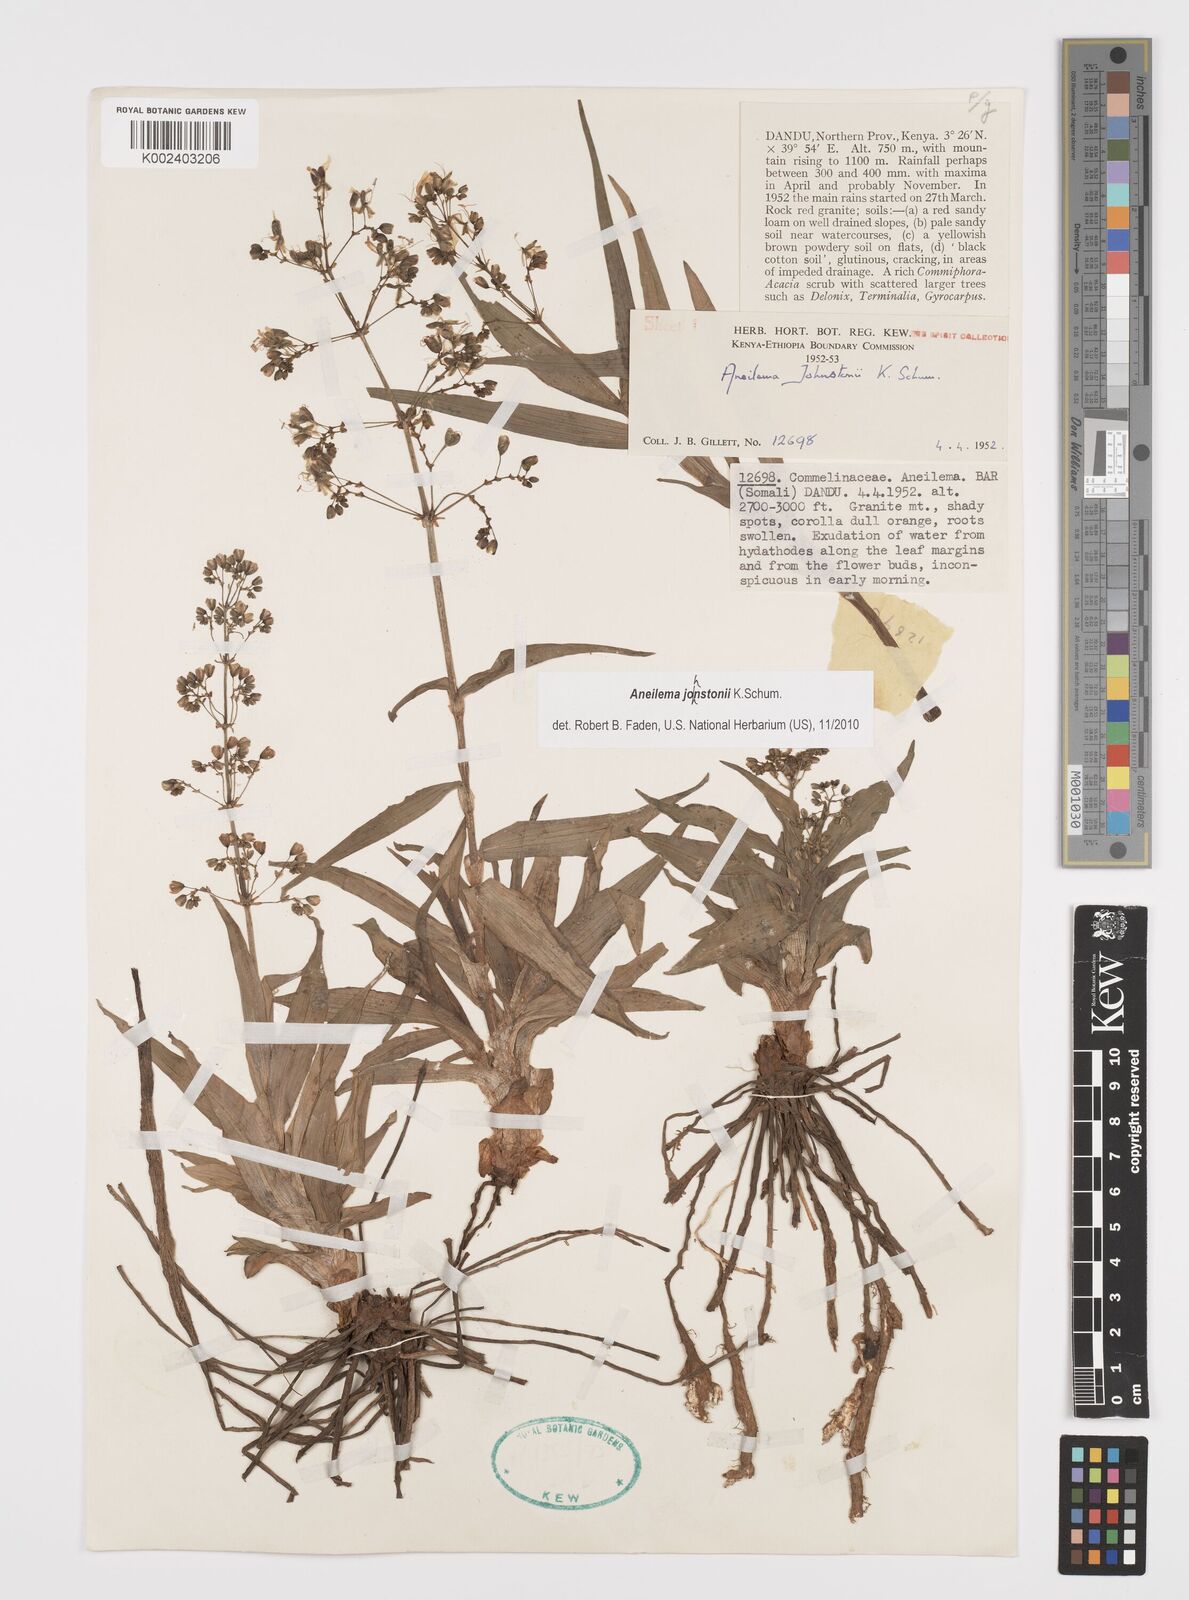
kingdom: Plantae
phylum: Tracheophyta
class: Liliopsida
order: Commelinales
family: Commelinaceae
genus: Aneilema
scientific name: Aneilema johnstonii
